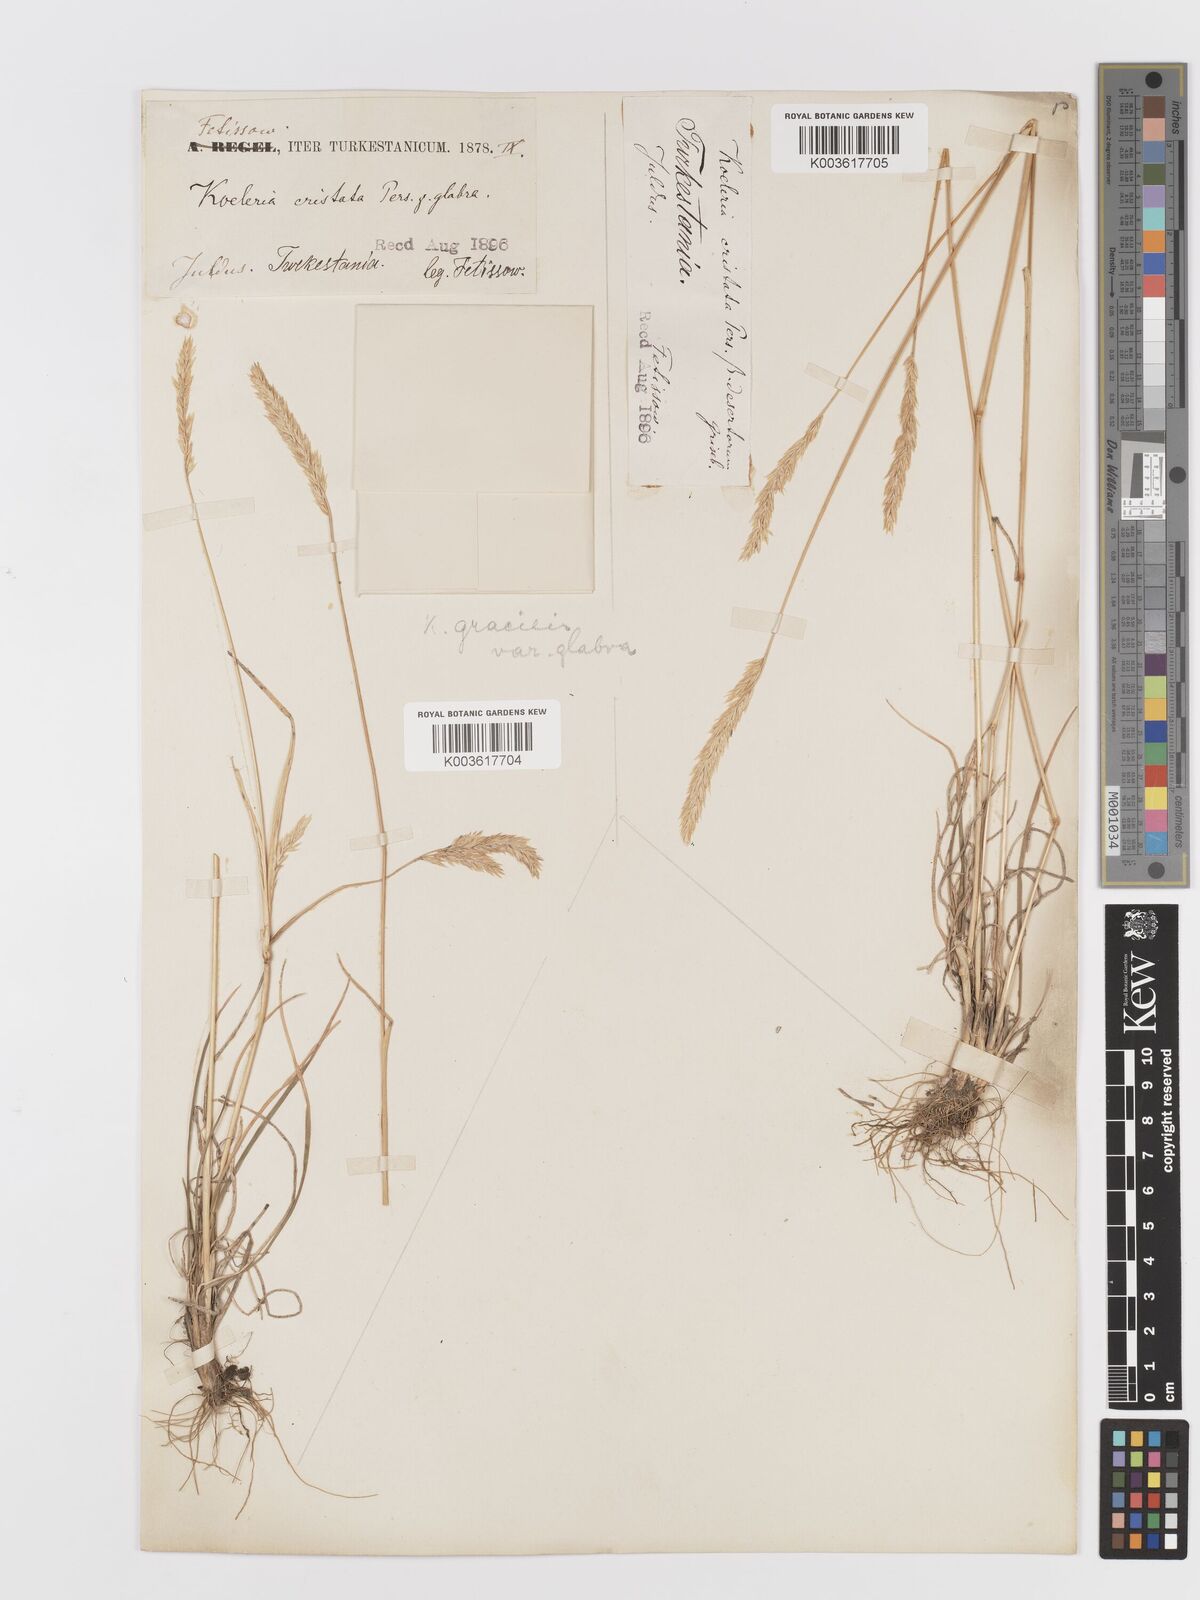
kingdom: Plantae
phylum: Tracheophyta
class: Liliopsida
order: Poales
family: Poaceae
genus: Koeleria
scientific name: Koeleria pyramidata
